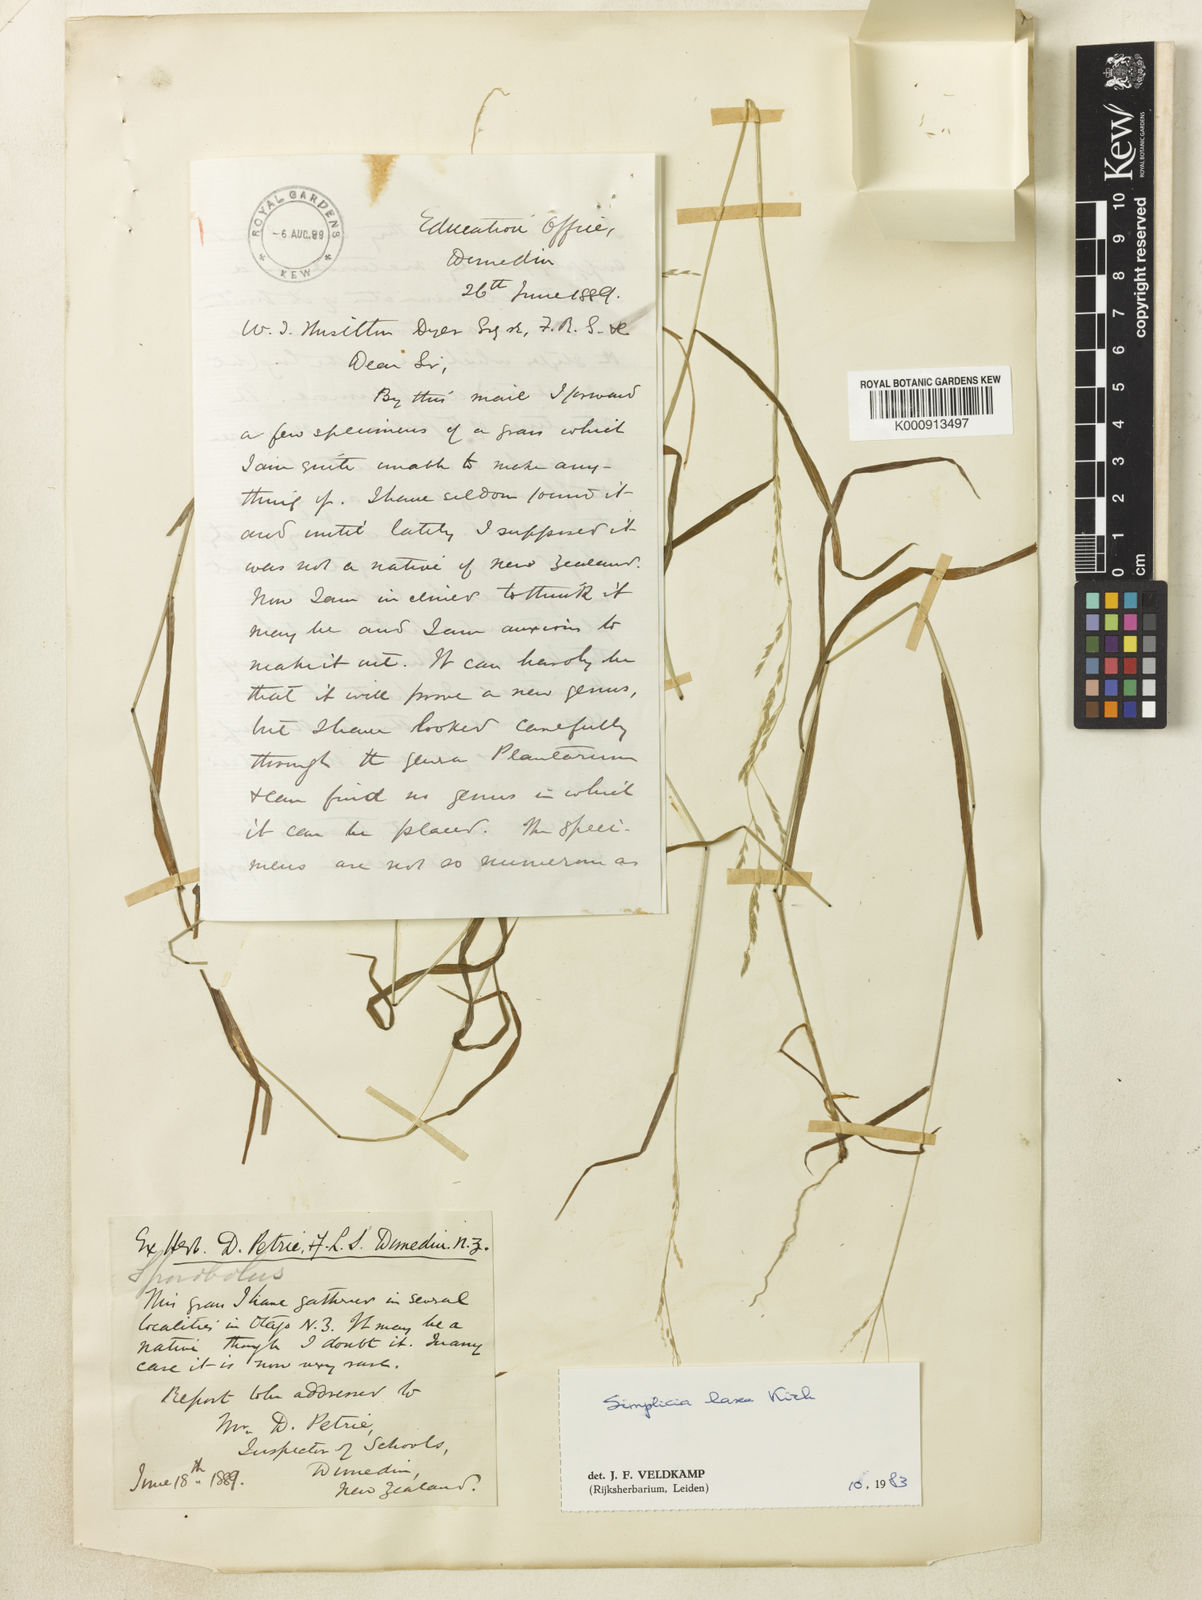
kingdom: Plantae
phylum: Tracheophyta
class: Liliopsida
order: Poales
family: Poaceae
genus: Simplicia
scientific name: Simplicia laxa
